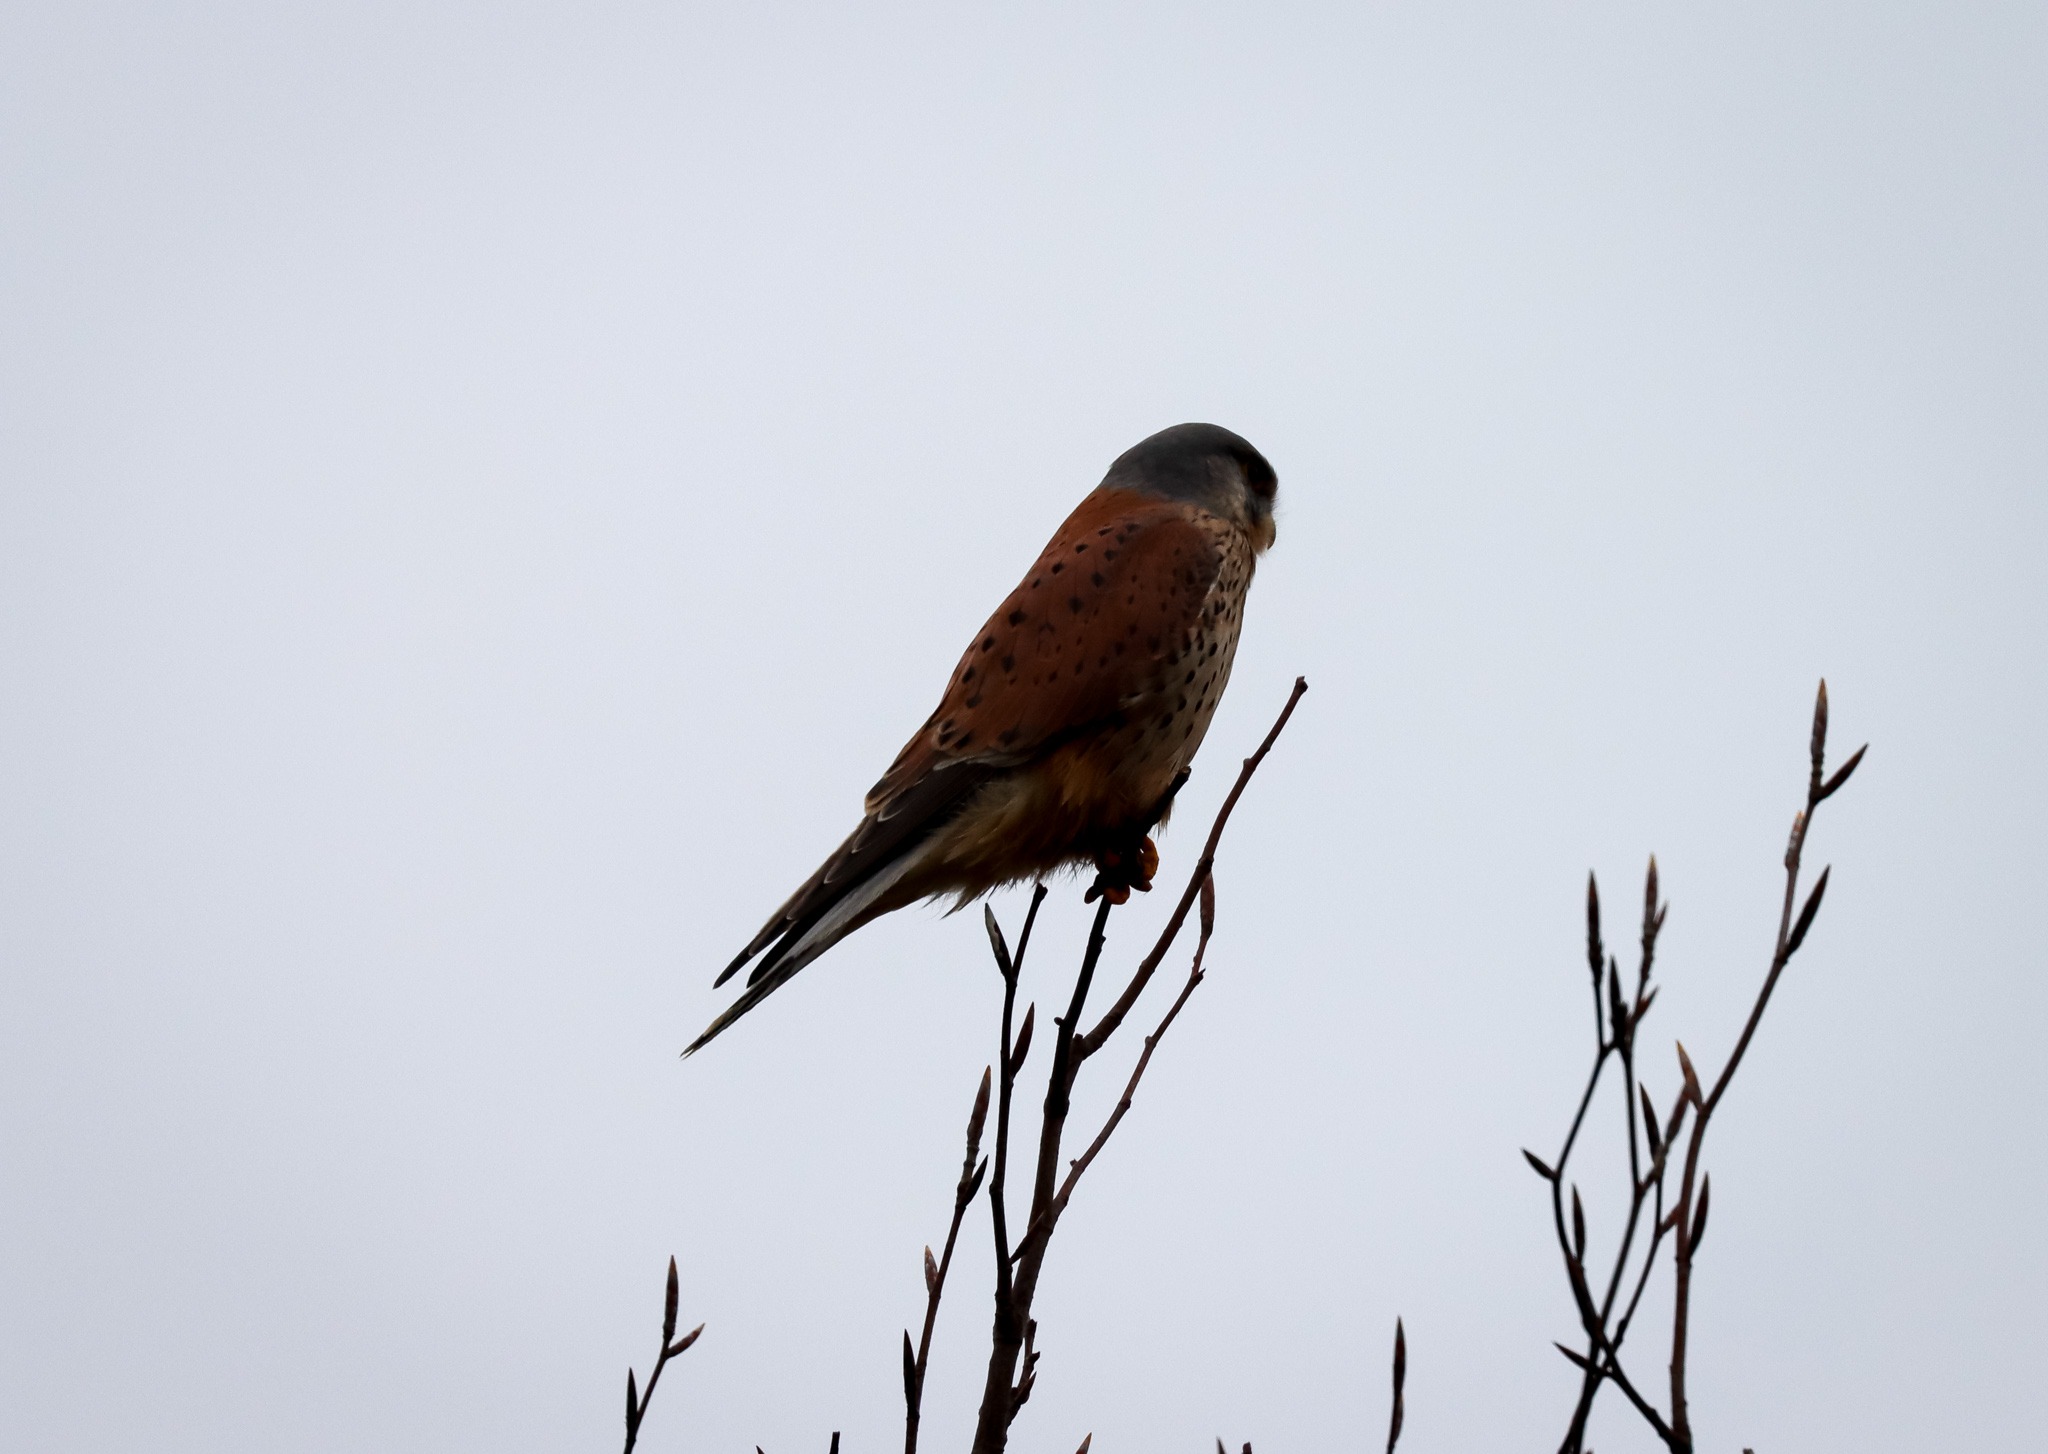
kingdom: Animalia
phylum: Chordata
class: Aves
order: Falconiformes
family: Falconidae
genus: Falco
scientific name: Falco tinnunculus
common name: Tårnfalk
